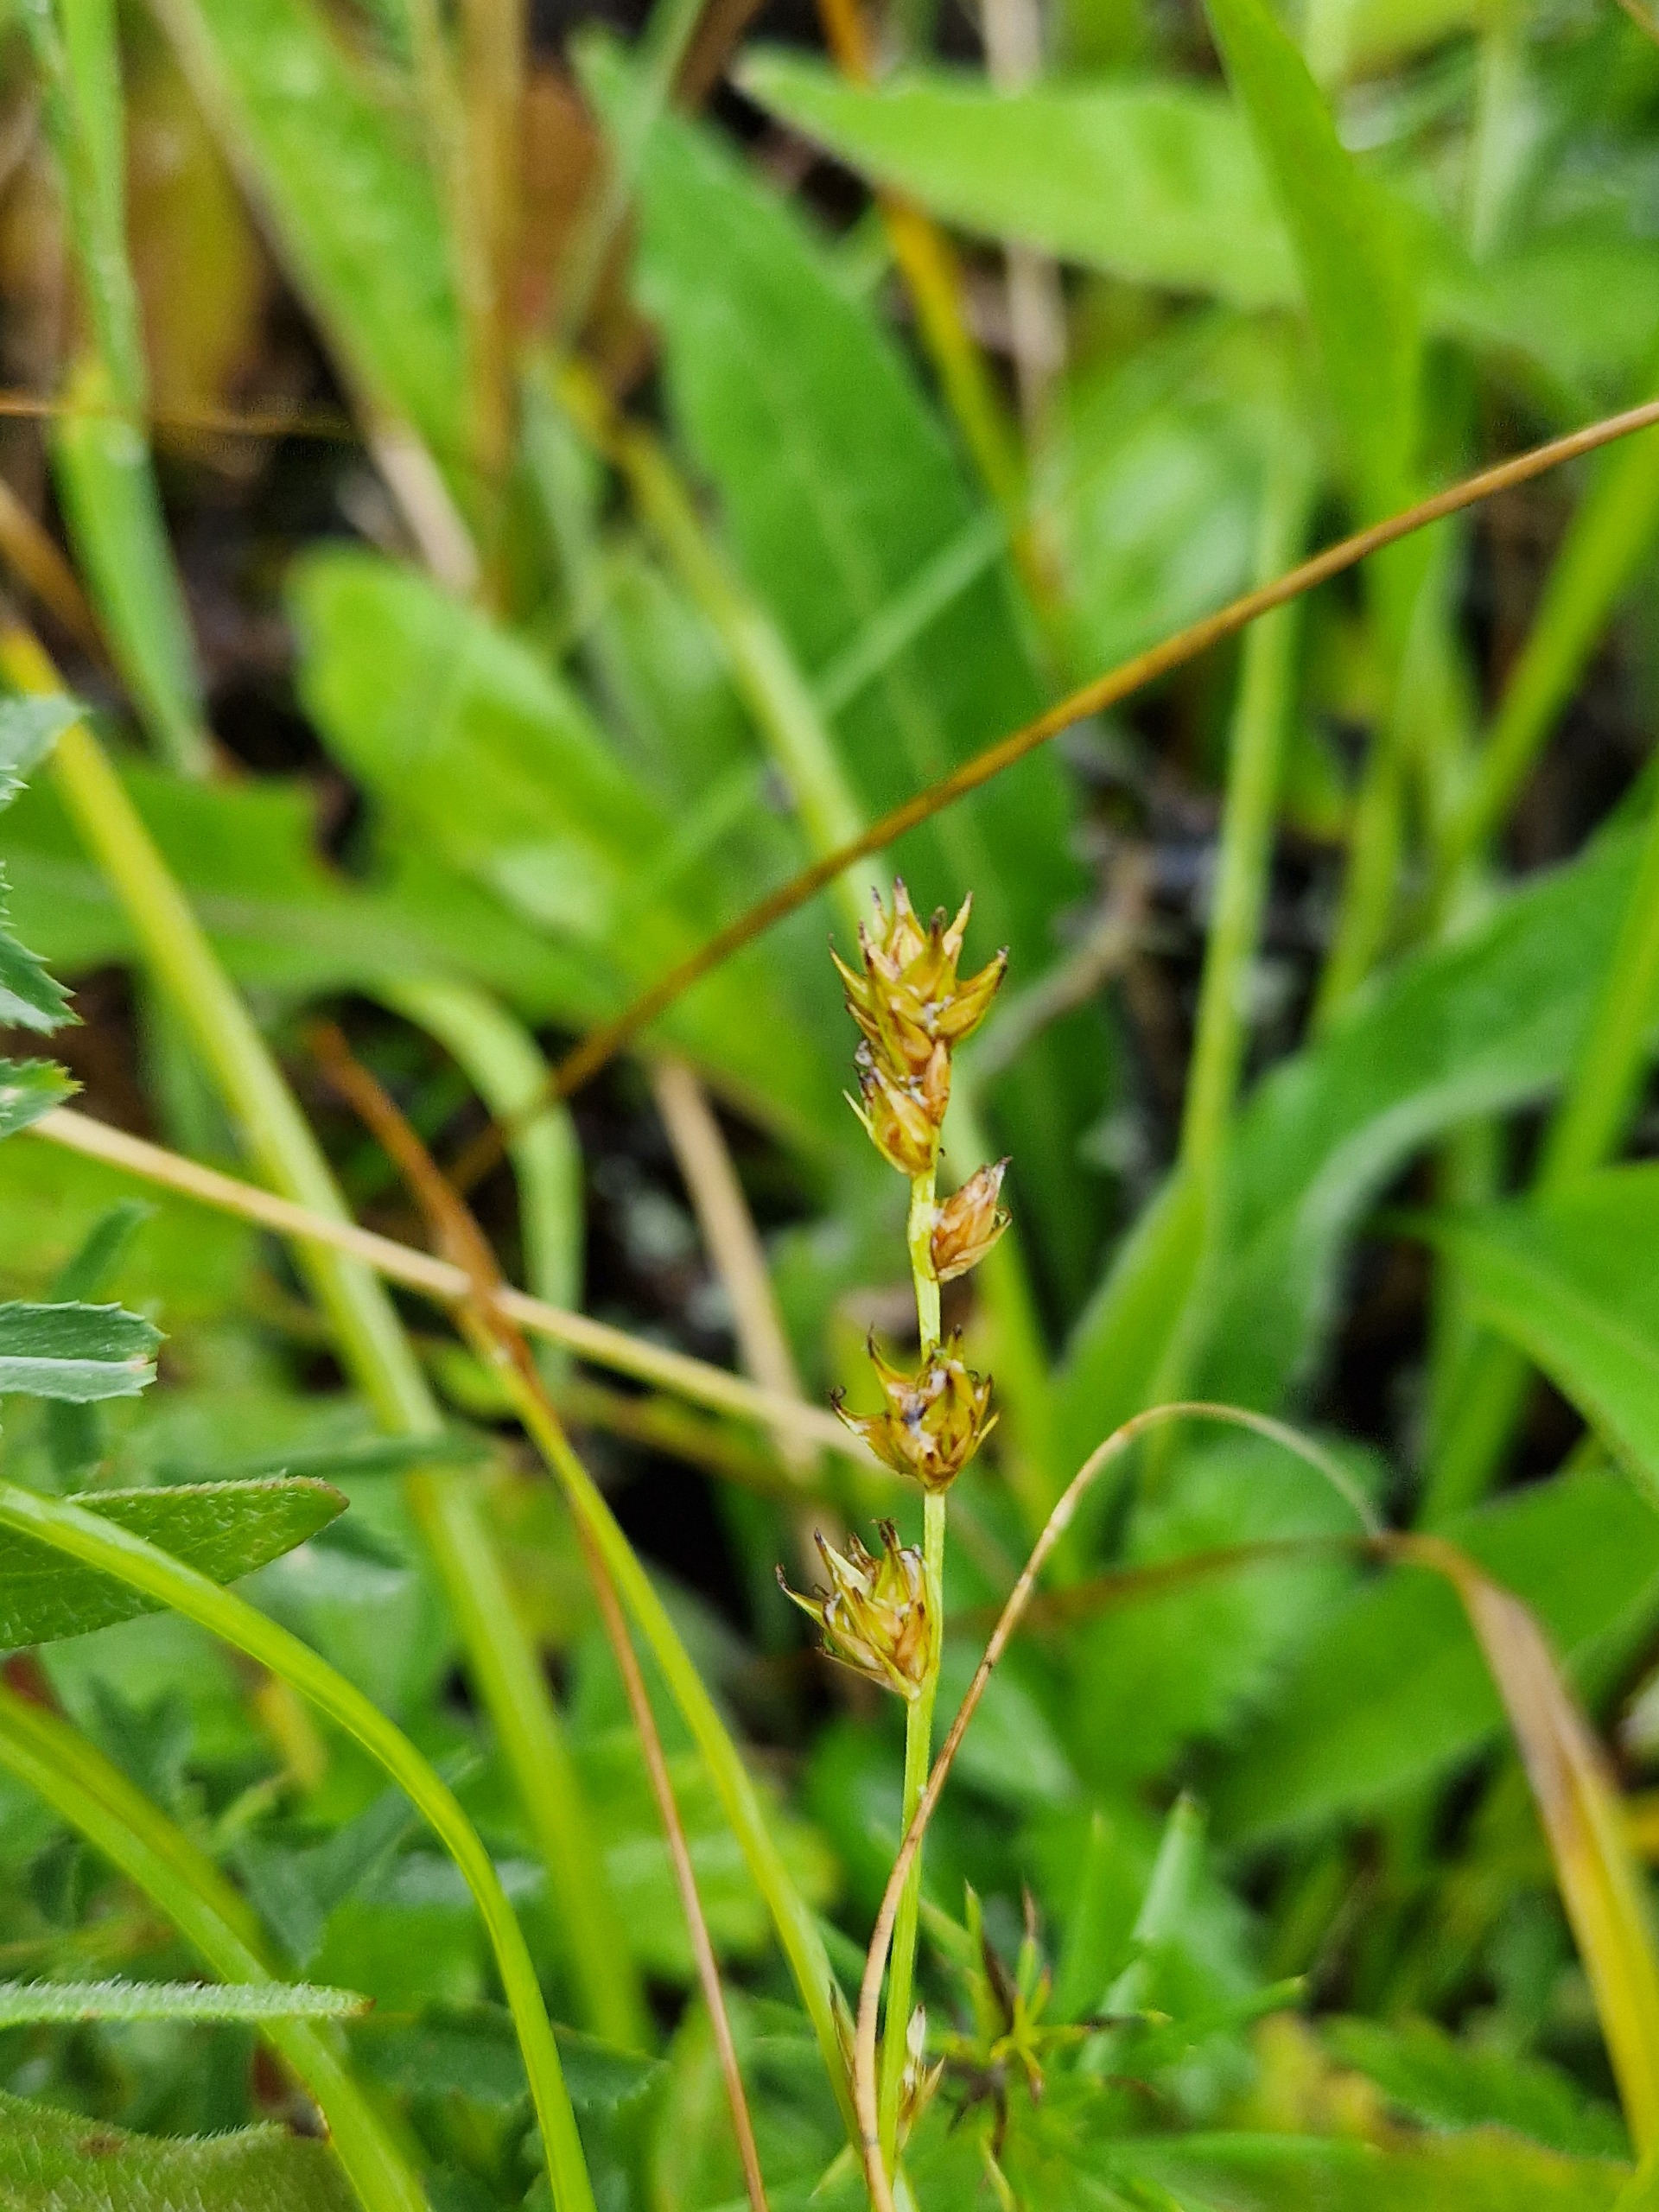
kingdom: Plantae
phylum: Tracheophyta
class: Liliopsida
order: Poales
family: Cyperaceae
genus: Carex
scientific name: Carex divulsa
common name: Mellembrudt star
